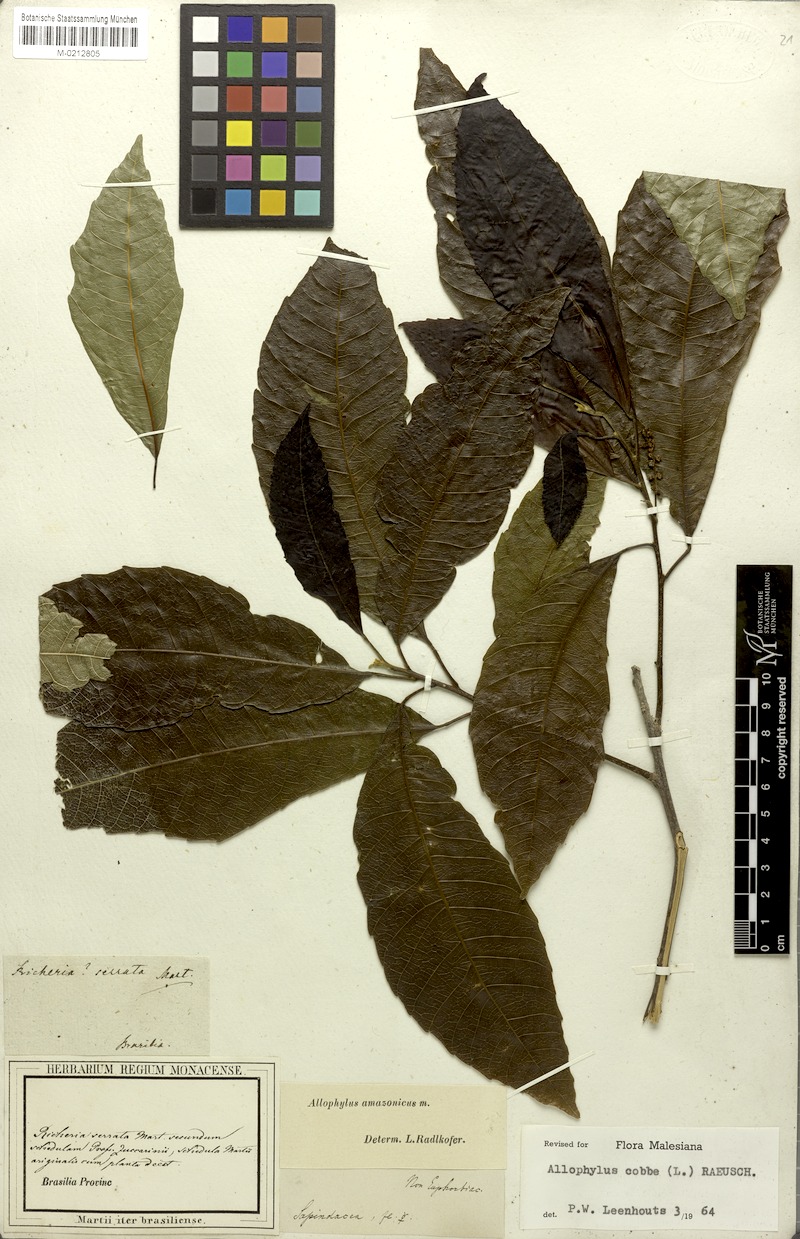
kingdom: Plantae
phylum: Tracheophyta
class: Magnoliopsida
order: Sapindales
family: Sapindaceae
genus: Allophylus
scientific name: Allophylus amazonicus
